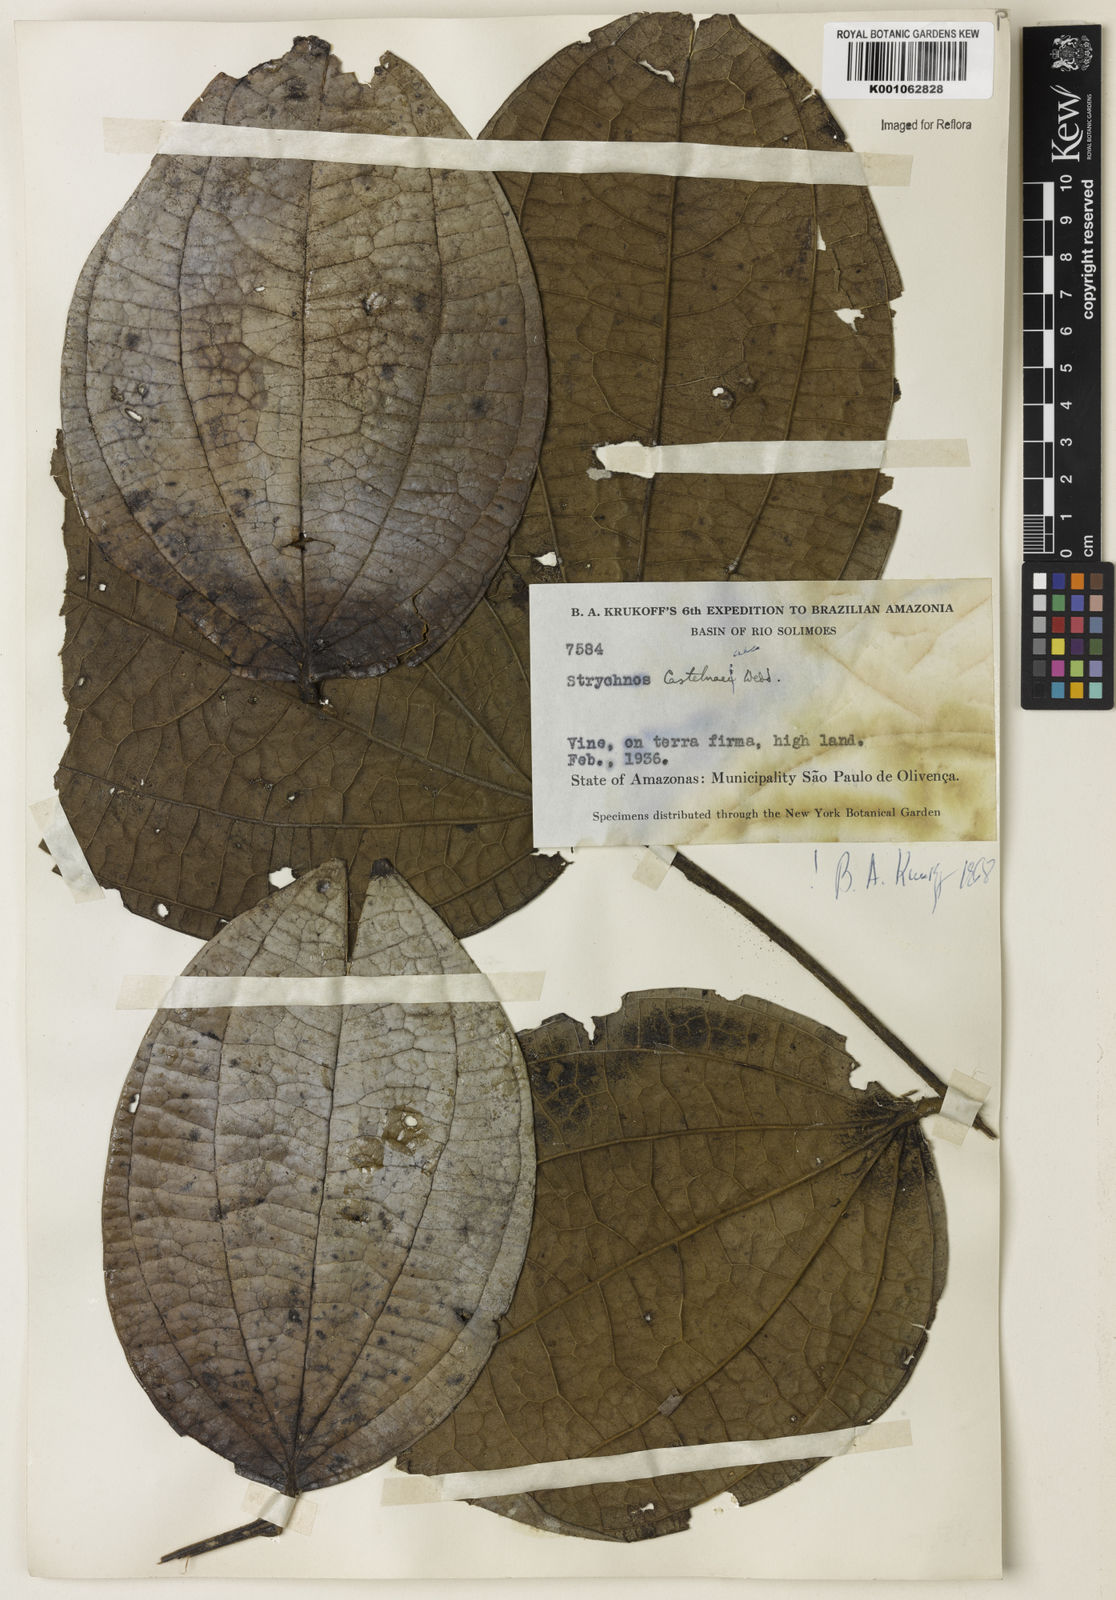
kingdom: Plantae
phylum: Tracheophyta
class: Magnoliopsida
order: Gentianales
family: Loganiaceae
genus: Strychnos
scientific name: Strychnos
